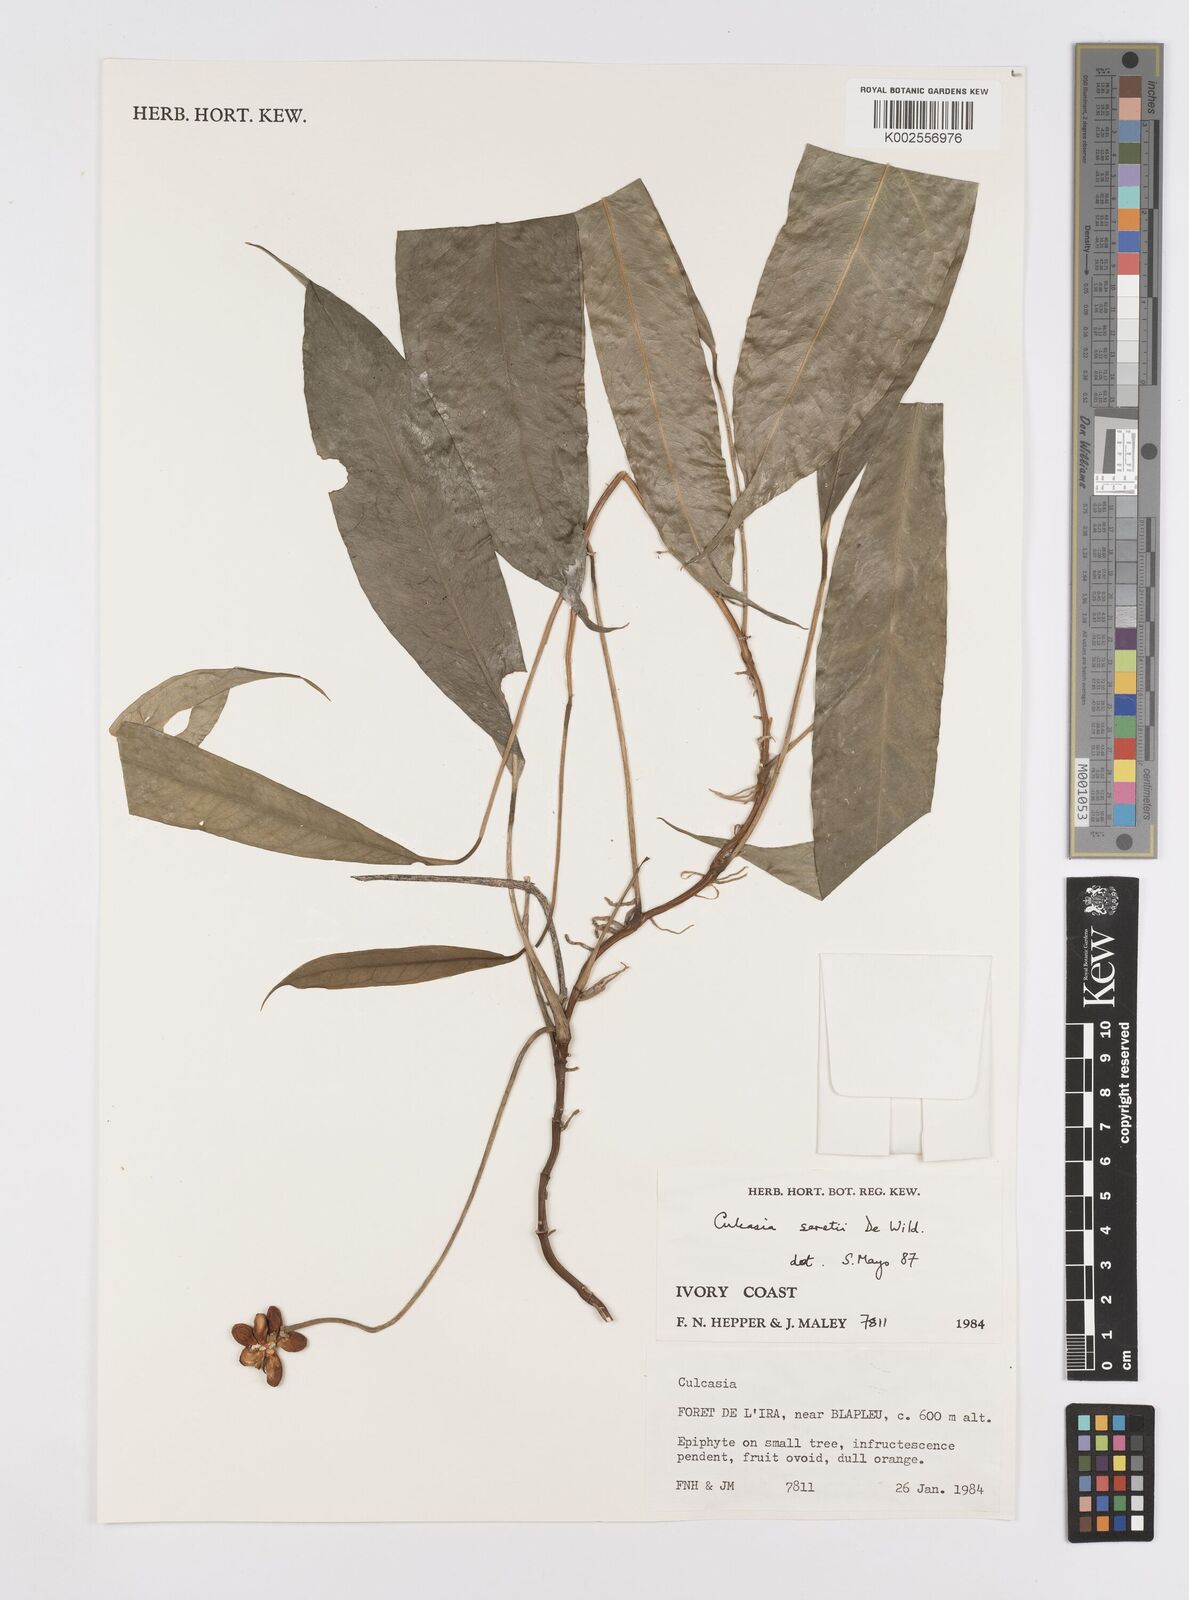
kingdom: Plantae
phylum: Tracheophyta
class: Liliopsida
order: Alismatales
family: Araceae
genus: Culcasia
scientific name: Culcasia seretii
